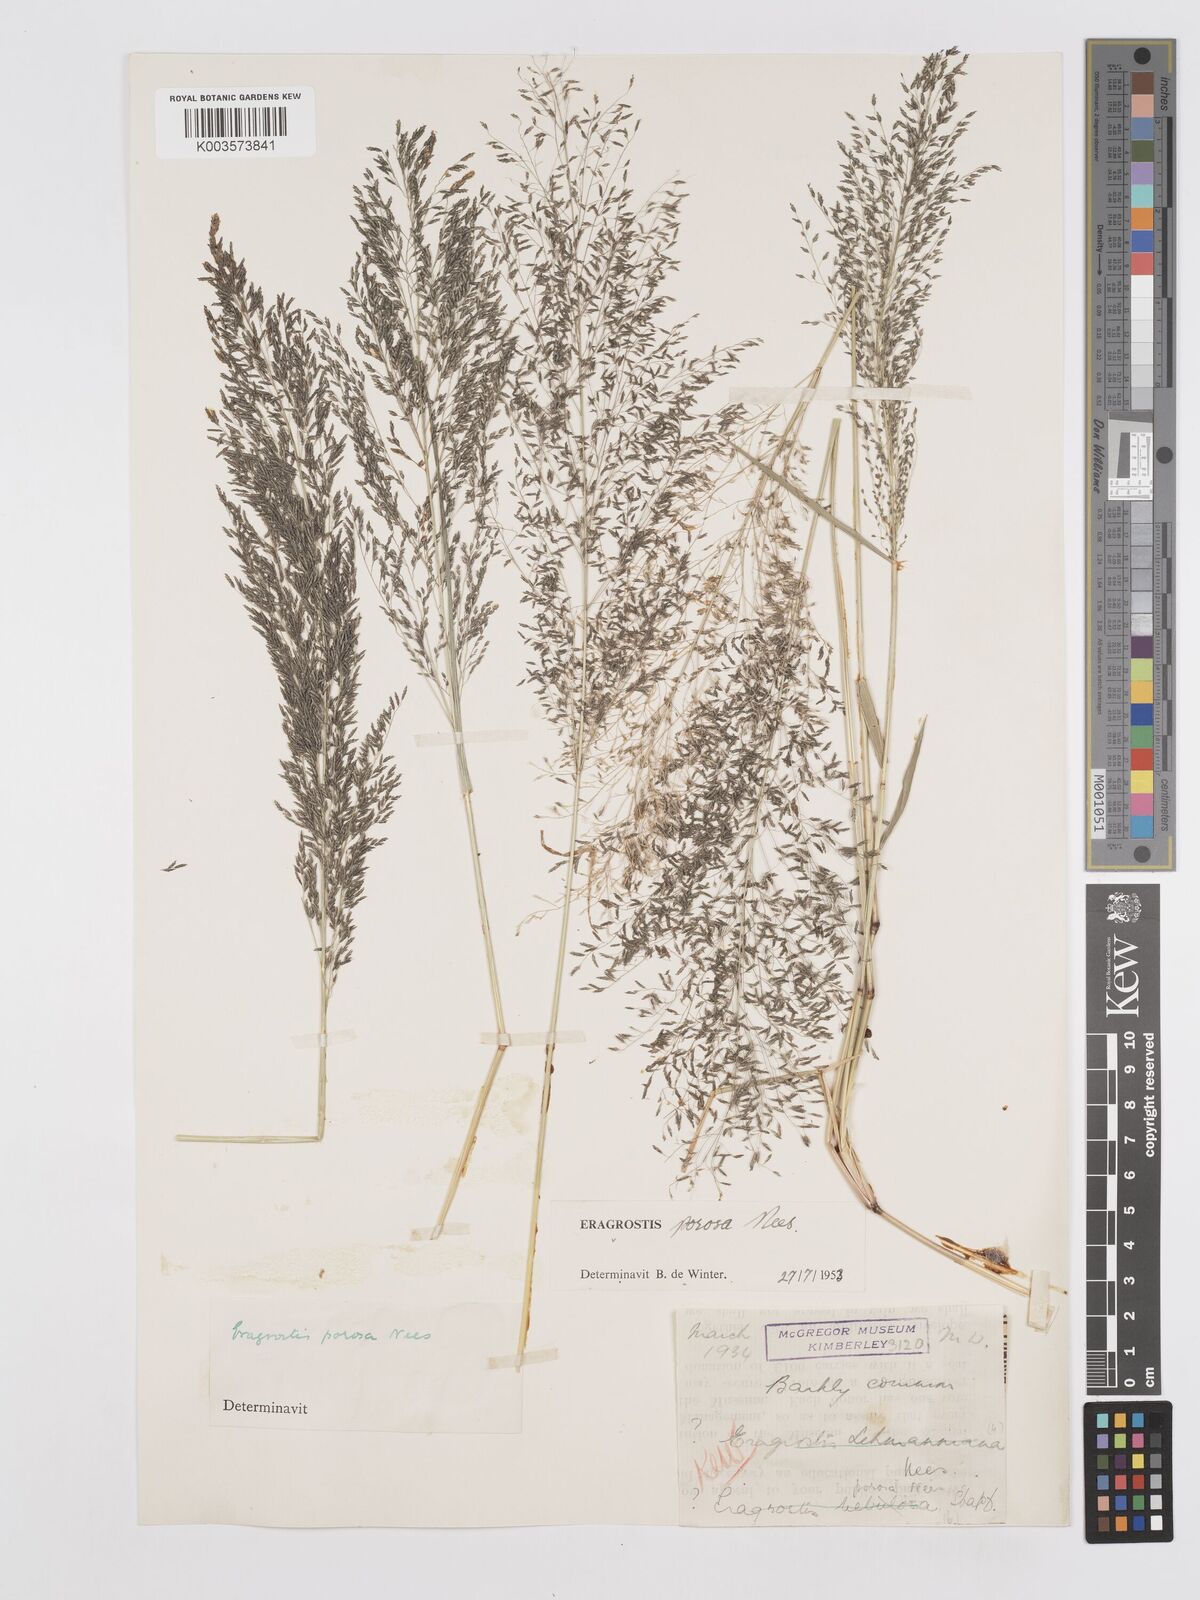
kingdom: Plantae
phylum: Tracheophyta
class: Liliopsida
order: Poales
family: Poaceae
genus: Eragrostis
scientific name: Eragrostis porosa
